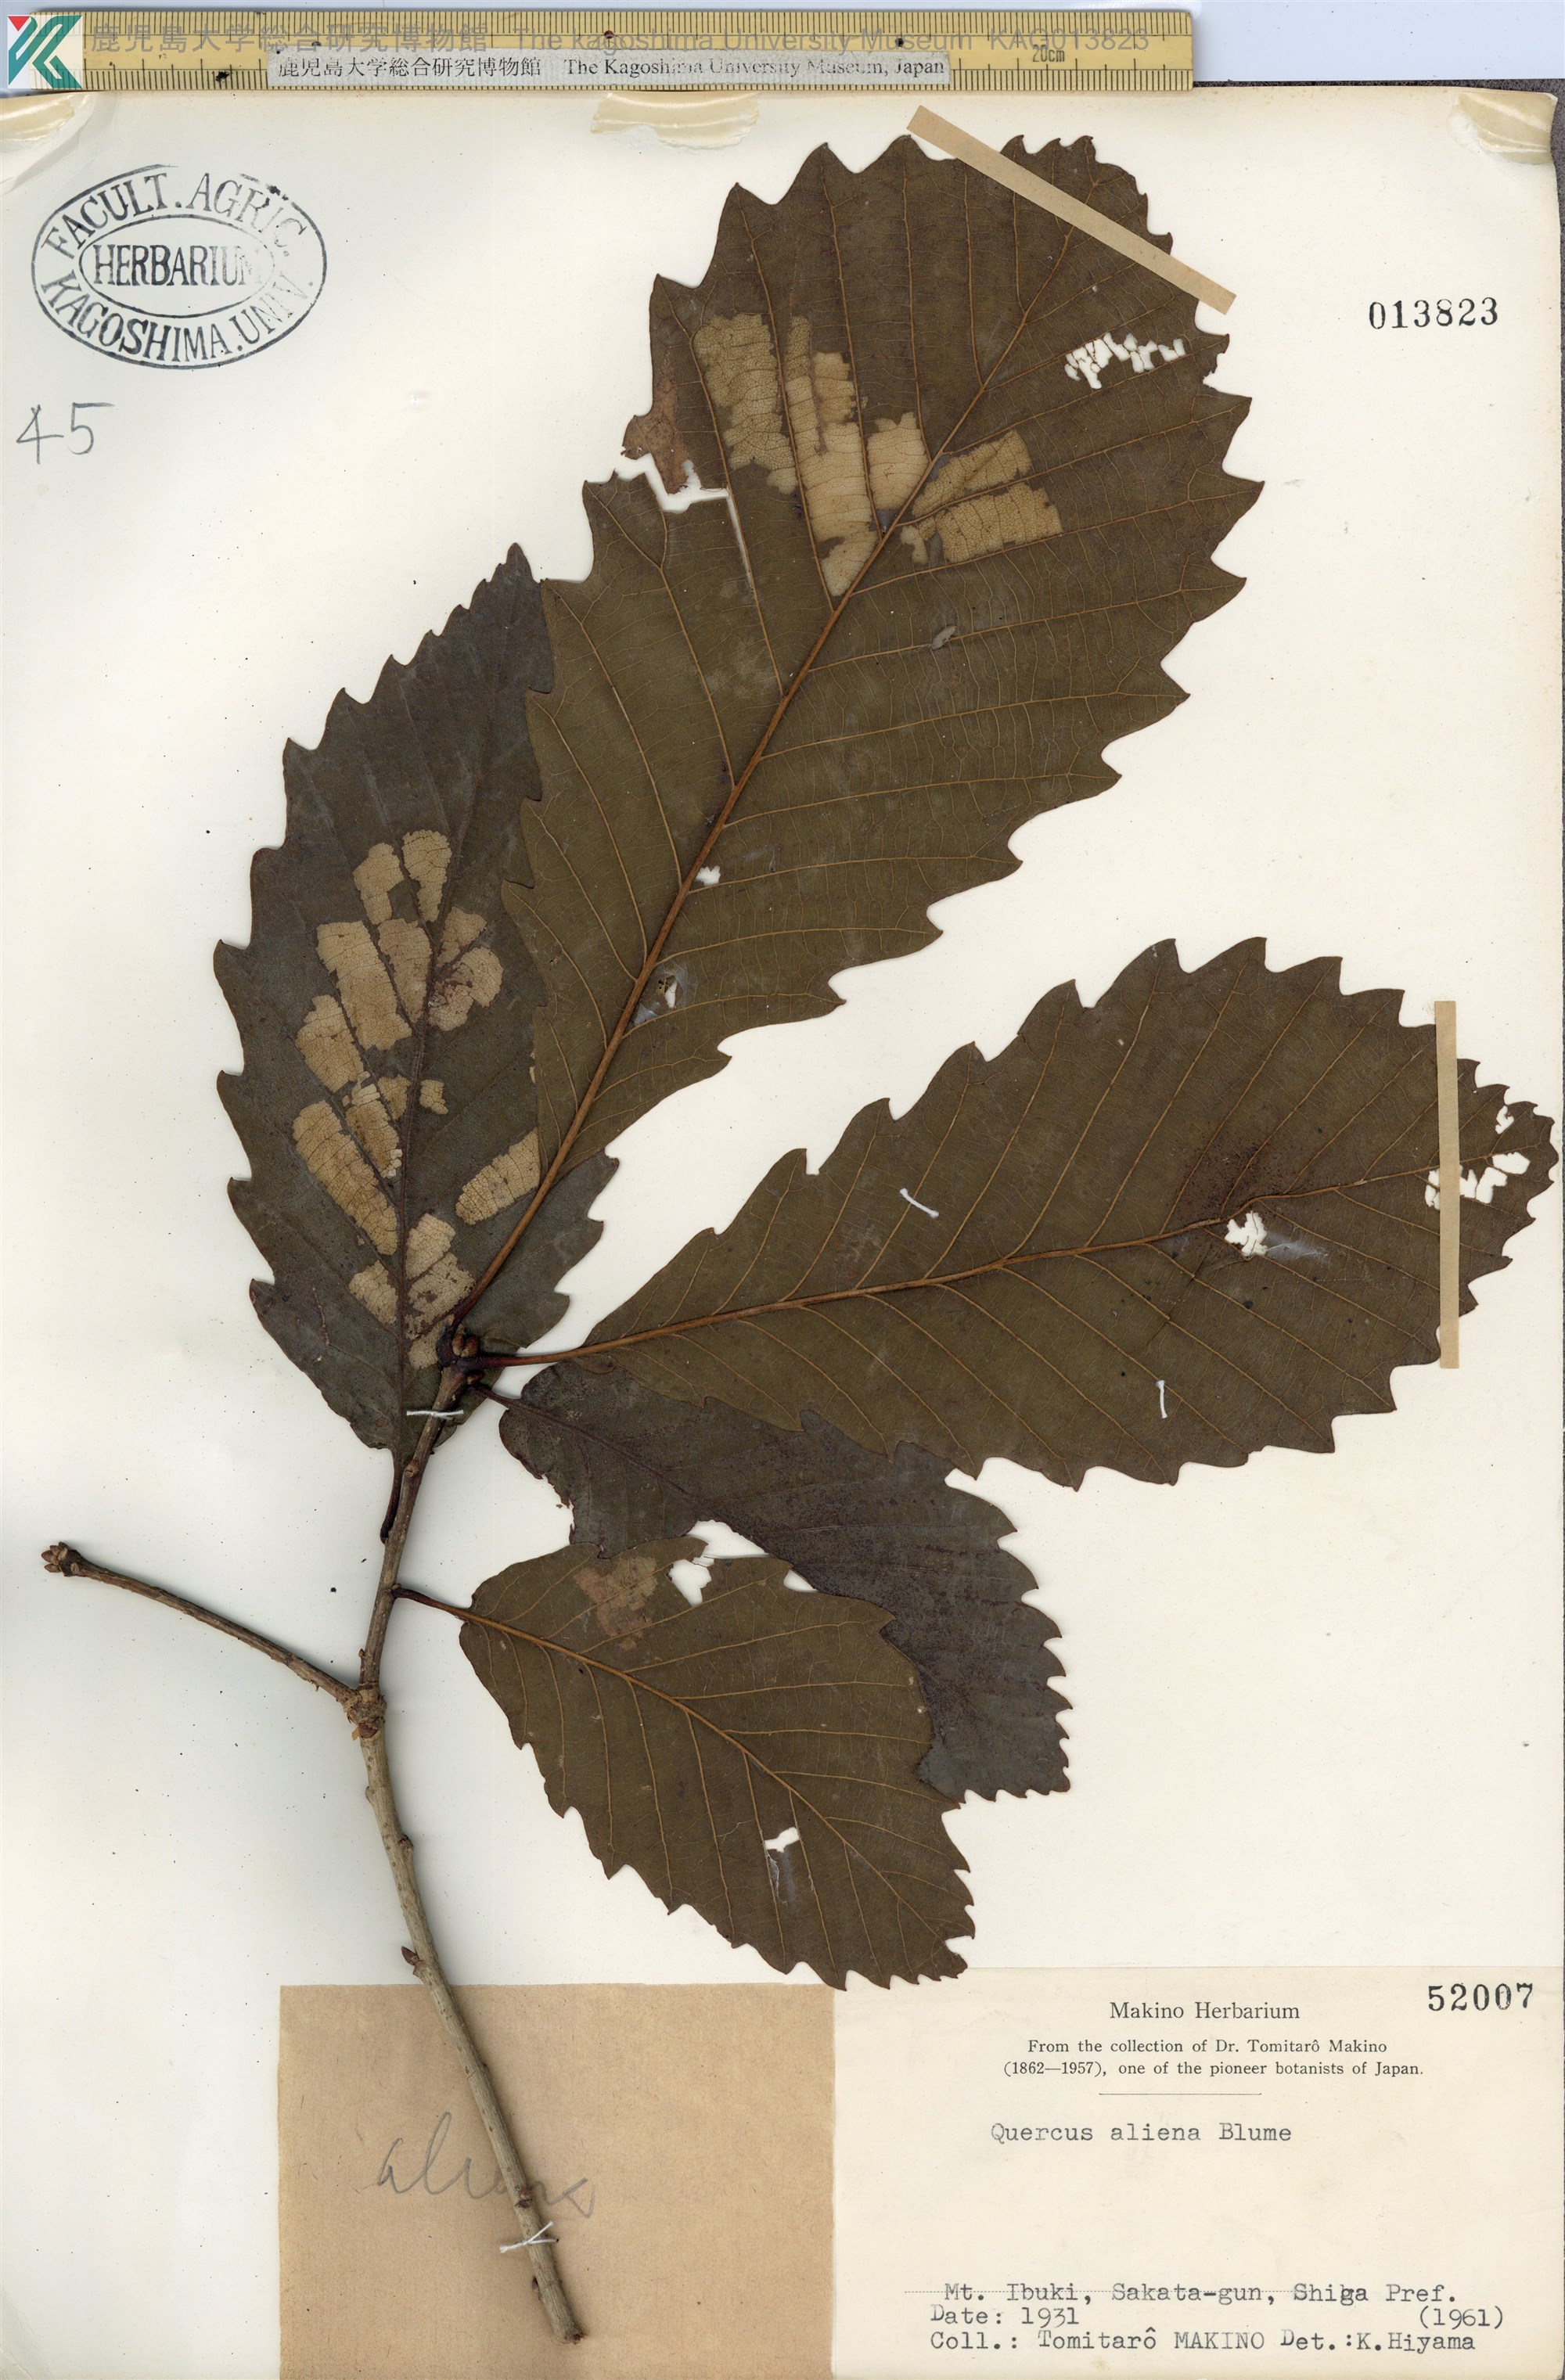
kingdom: Plantae
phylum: Tracheophyta
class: Magnoliopsida
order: Fagales
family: Fagaceae
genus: Quercus
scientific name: Quercus aliena
